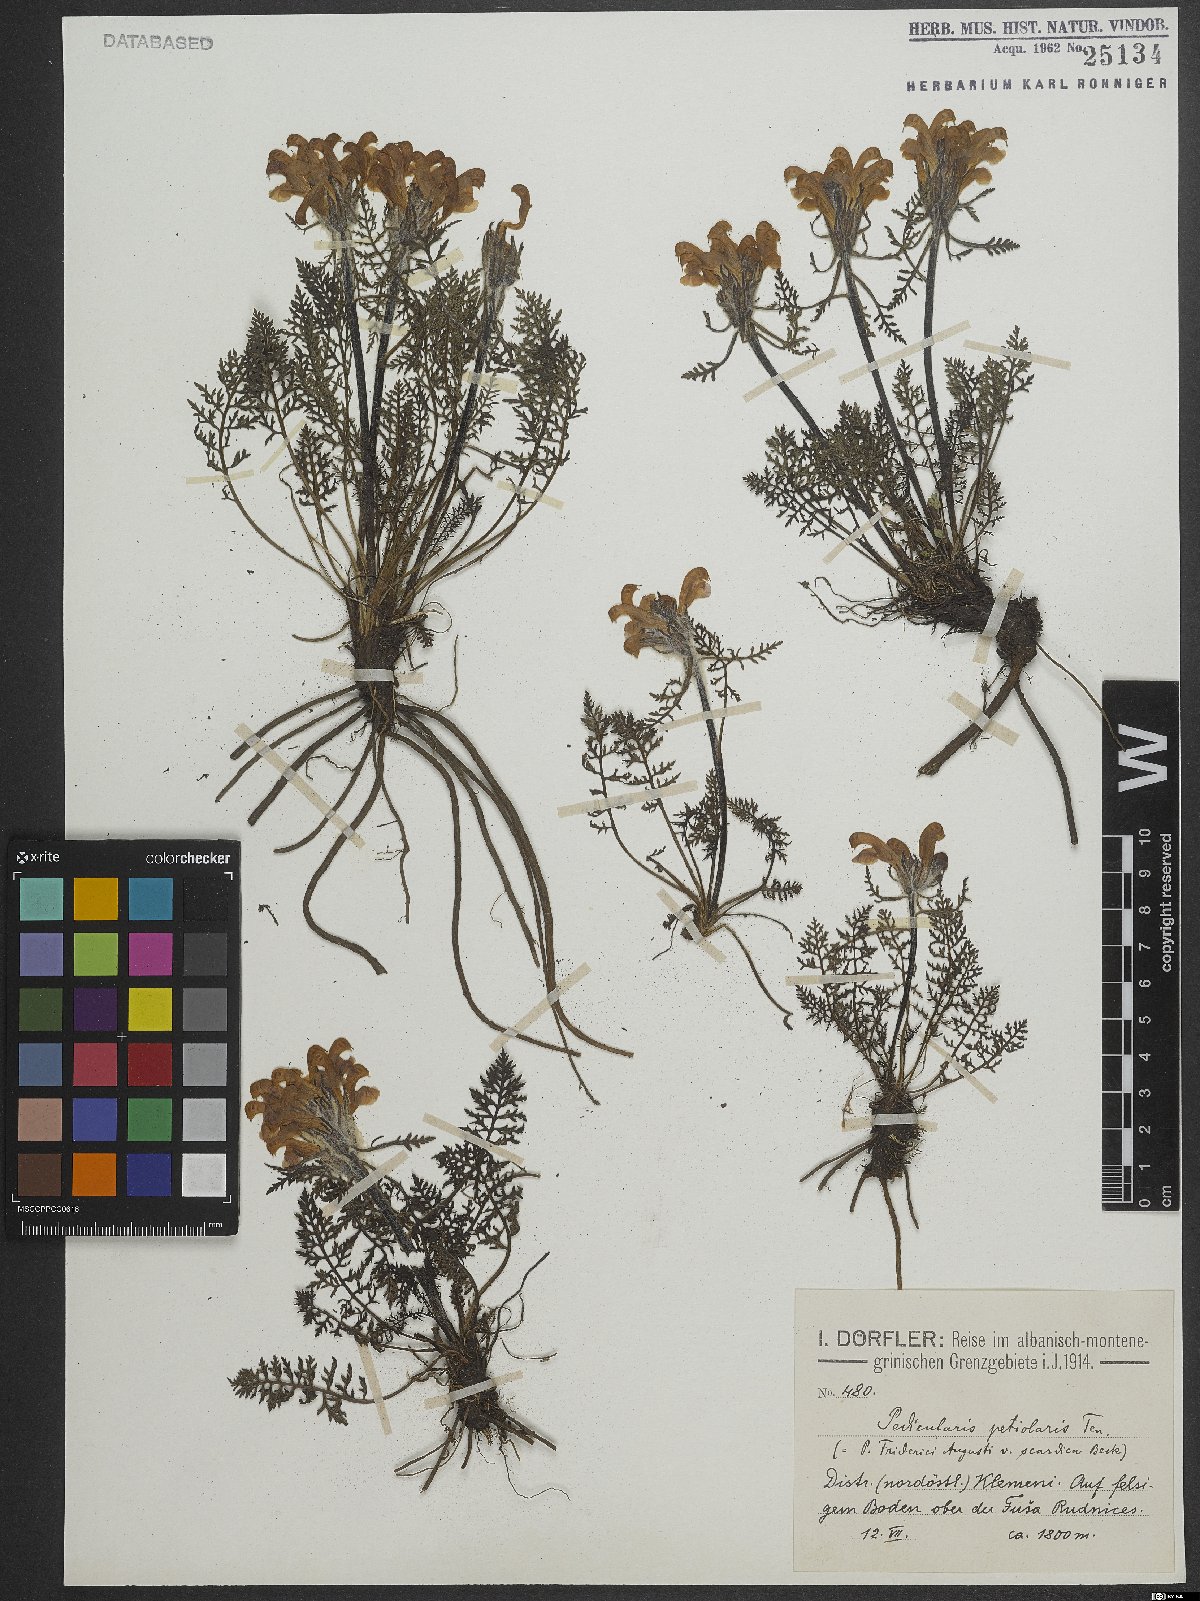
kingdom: Plantae
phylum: Tracheophyta
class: Magnoliopsida
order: Lamiales
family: Orobanchaceae
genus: Pedicularis
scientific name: Pedicularis petiolaris
